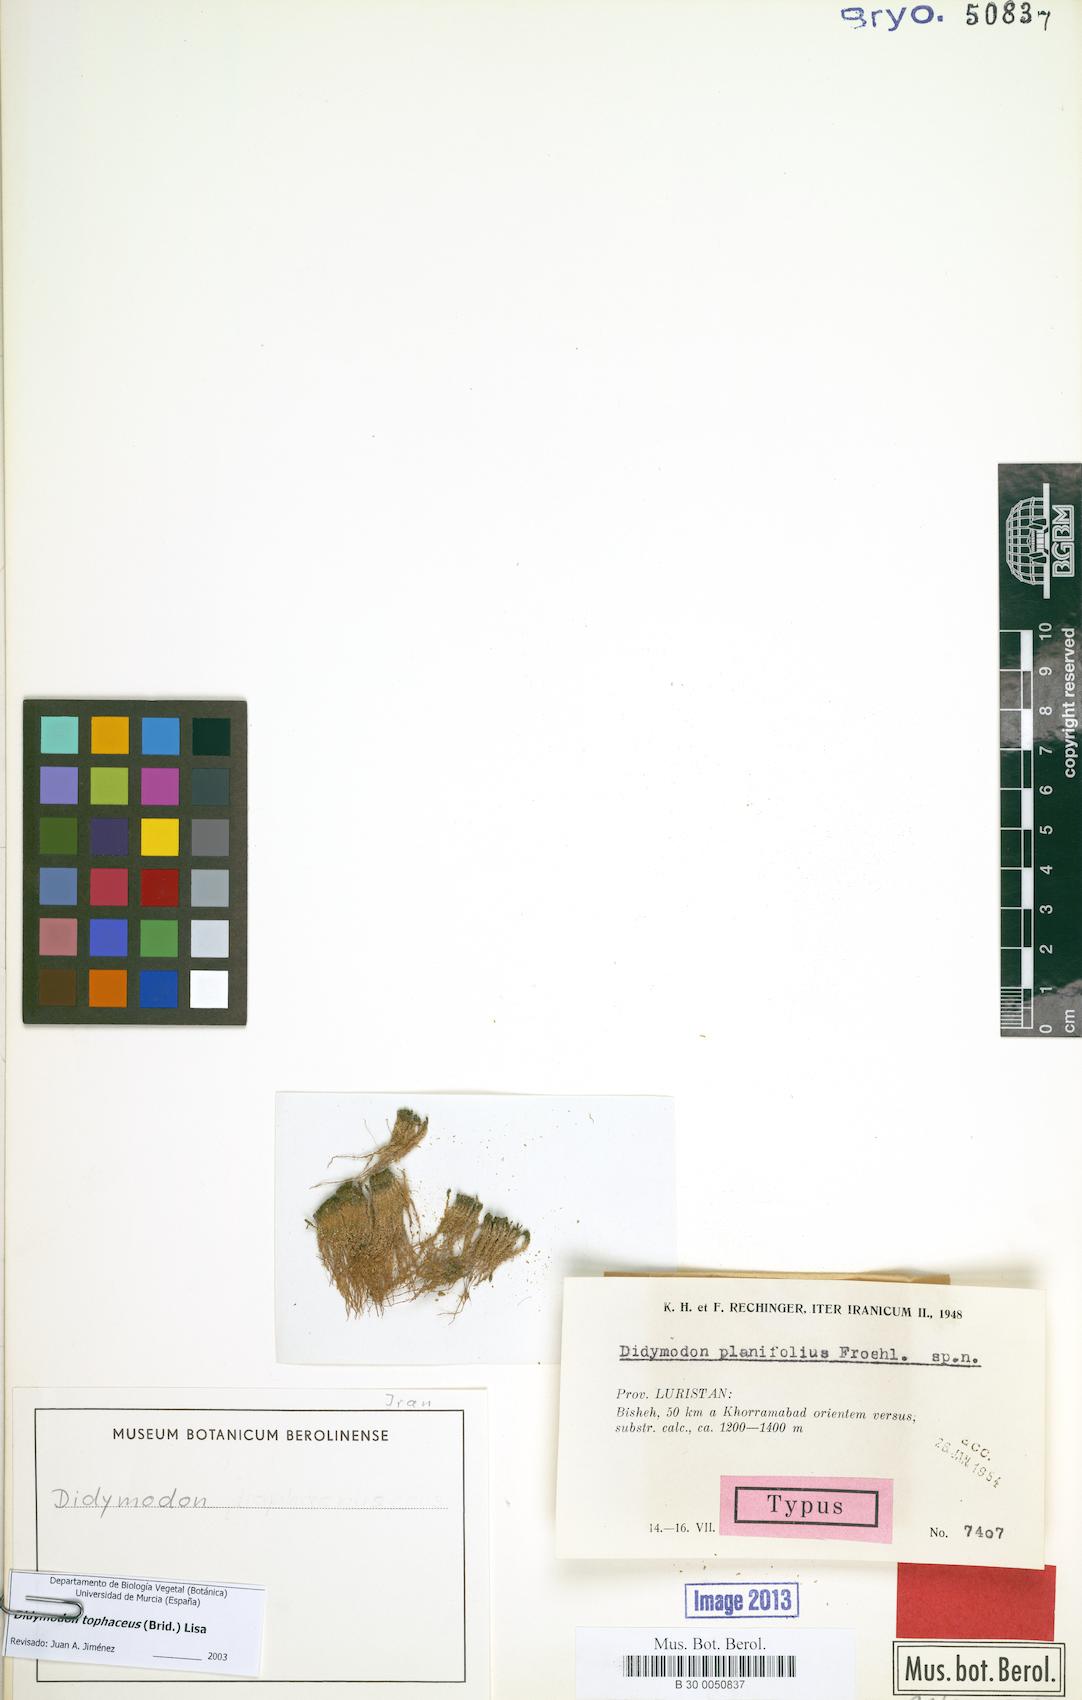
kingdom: Plantae
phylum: Bryophyta
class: Bryopsida
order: Pottiales
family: Pottiaceae
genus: Geheebia
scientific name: Geheebia tophacea
